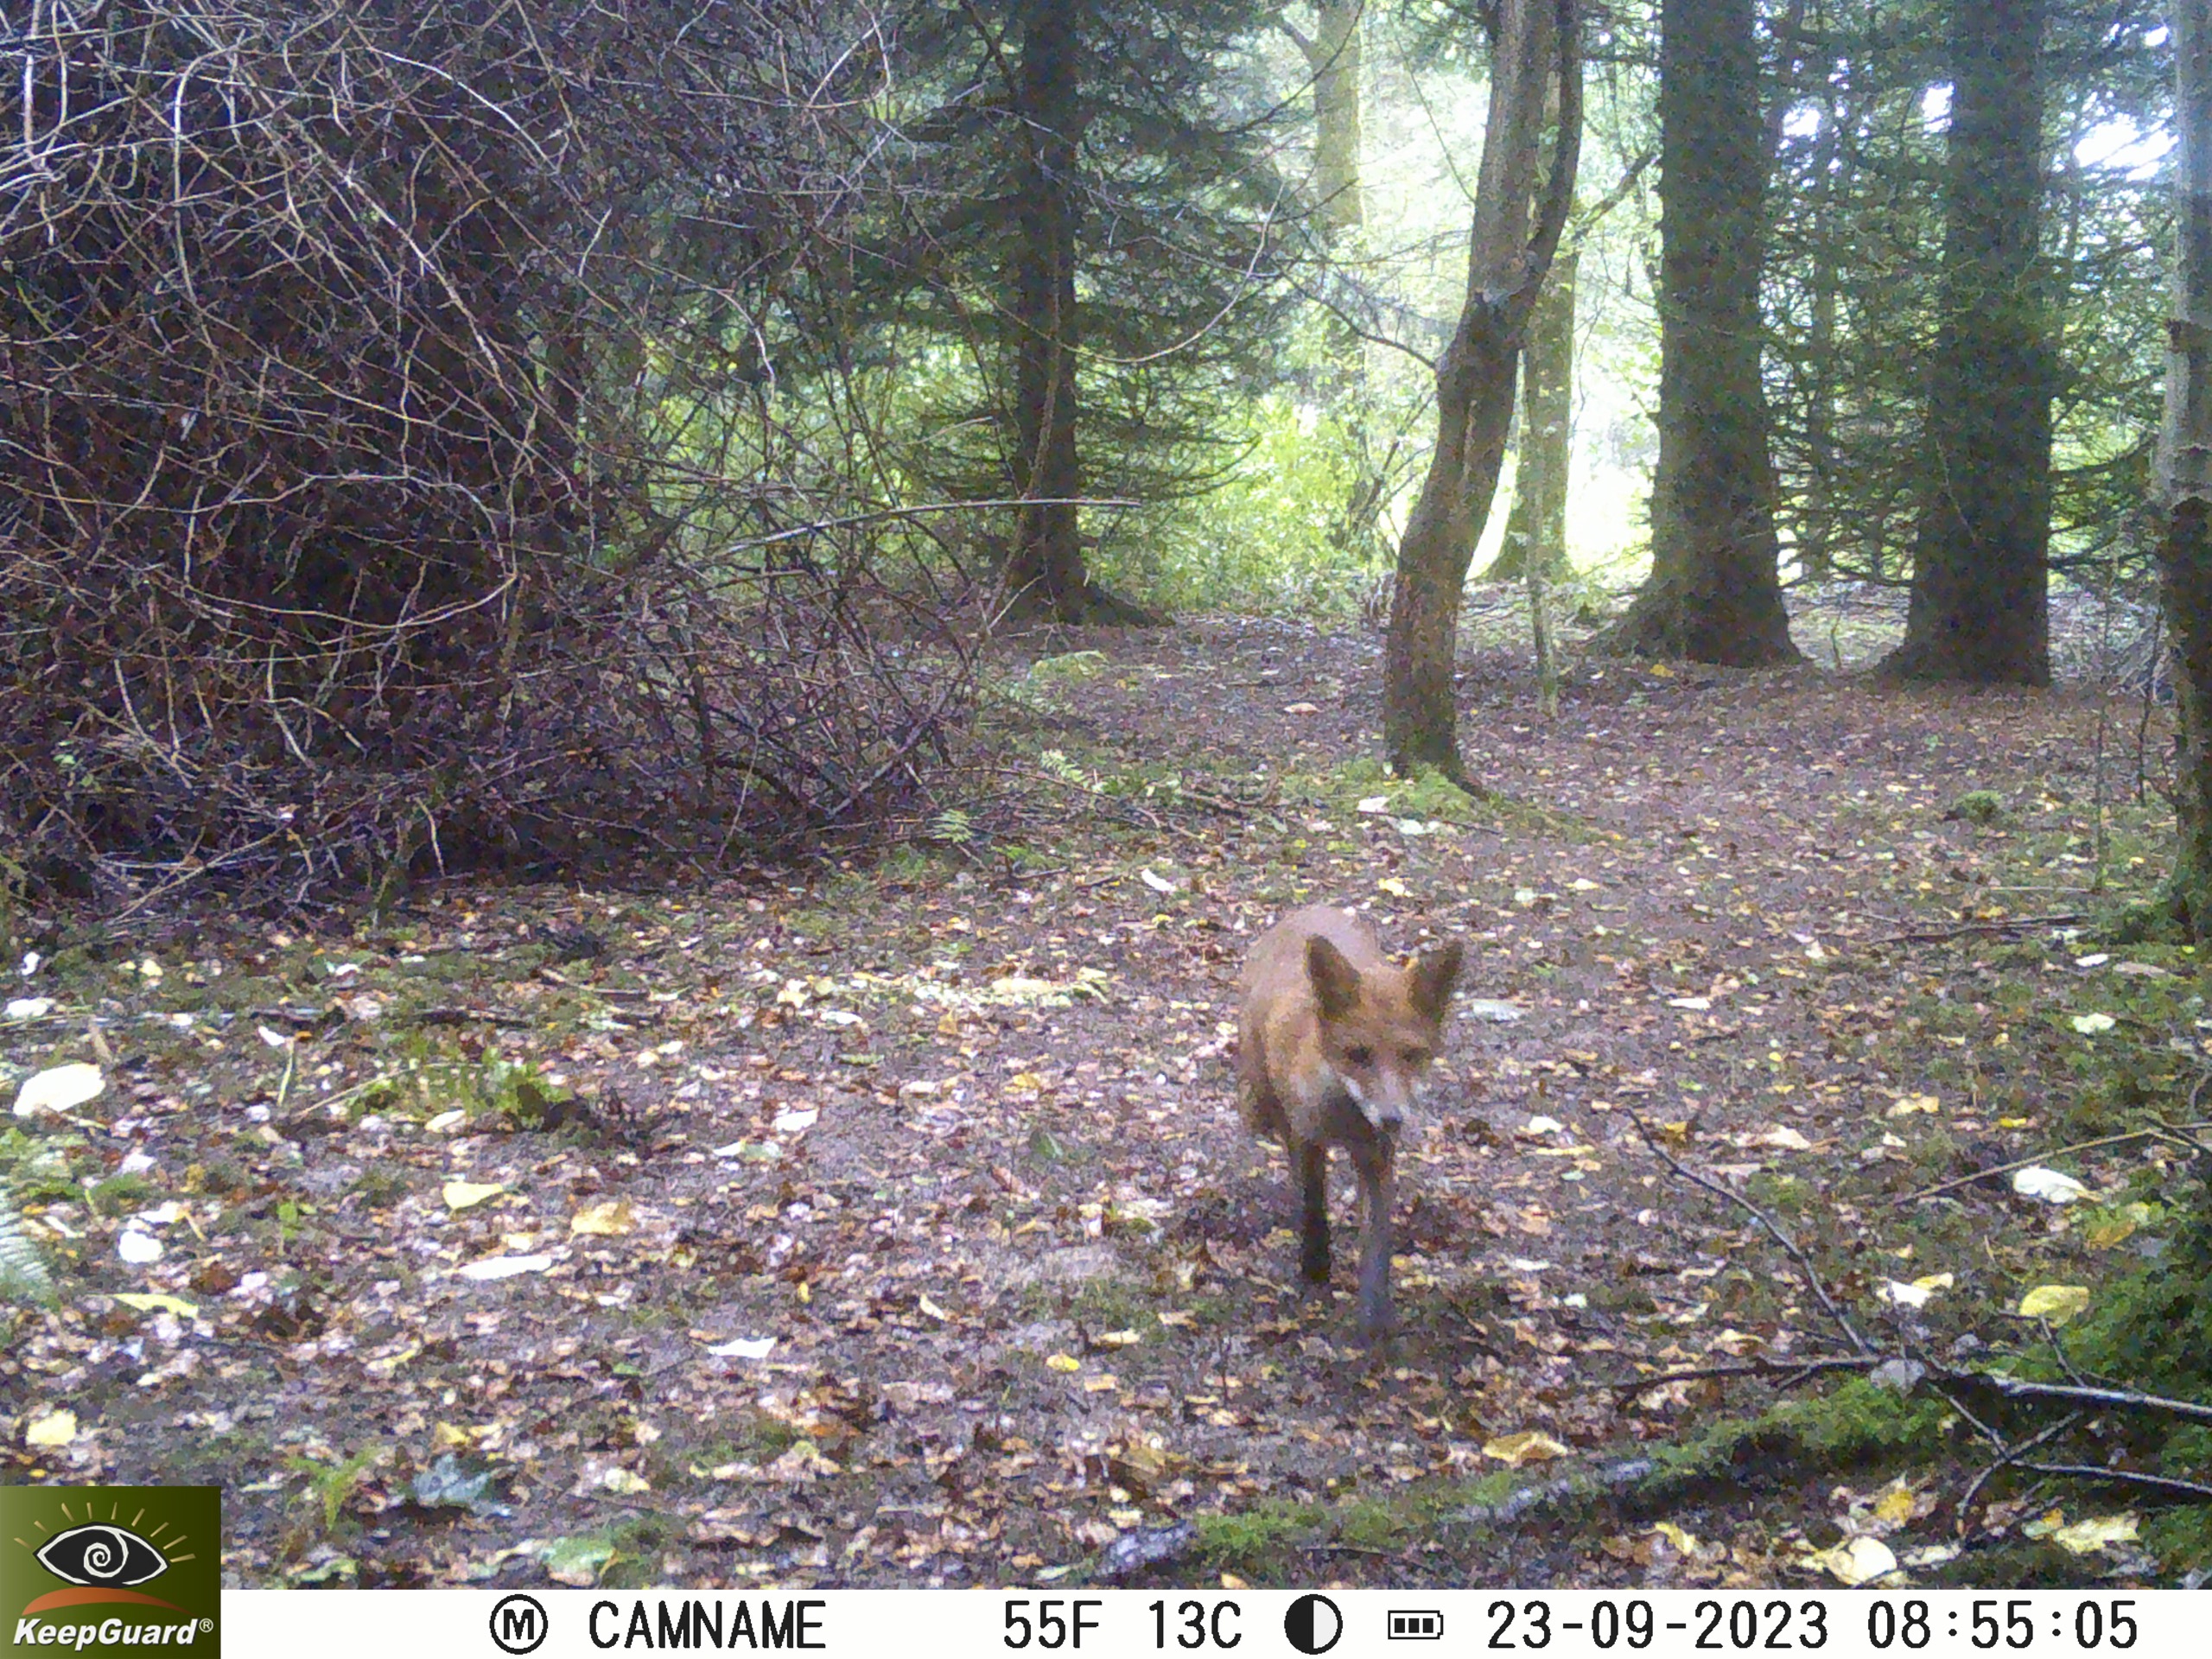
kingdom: Animalia
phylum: Chordata
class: Mammalia
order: Carnivora
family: Canidae
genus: Vulpes
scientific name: Vulpes vulpes
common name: Ræv
